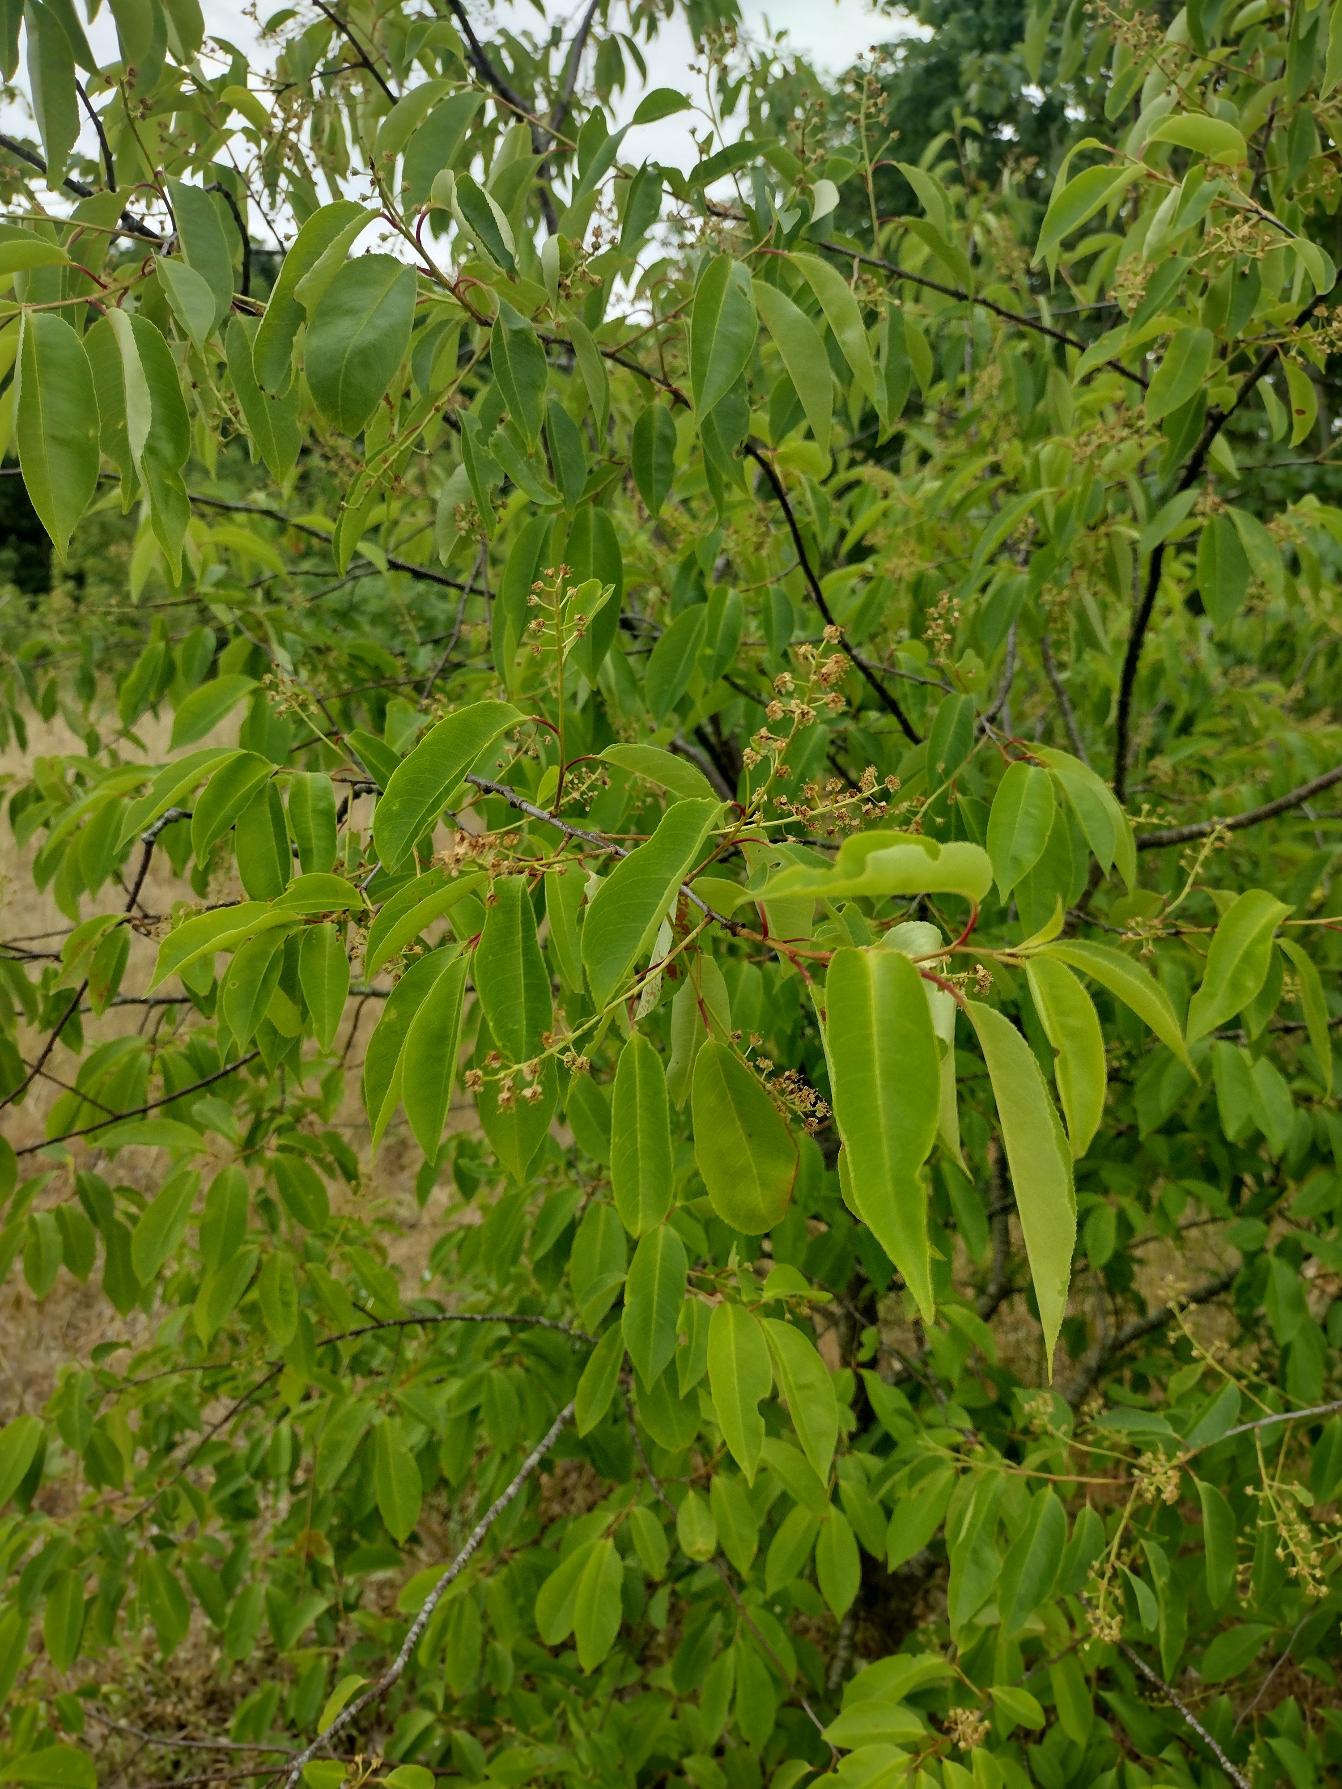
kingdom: Plantae
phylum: Tracheophyta
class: Magnoliopsida
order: Rosales
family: Rosaceae
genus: Prunus
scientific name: Prunus serotina
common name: Glansbladet hæg
